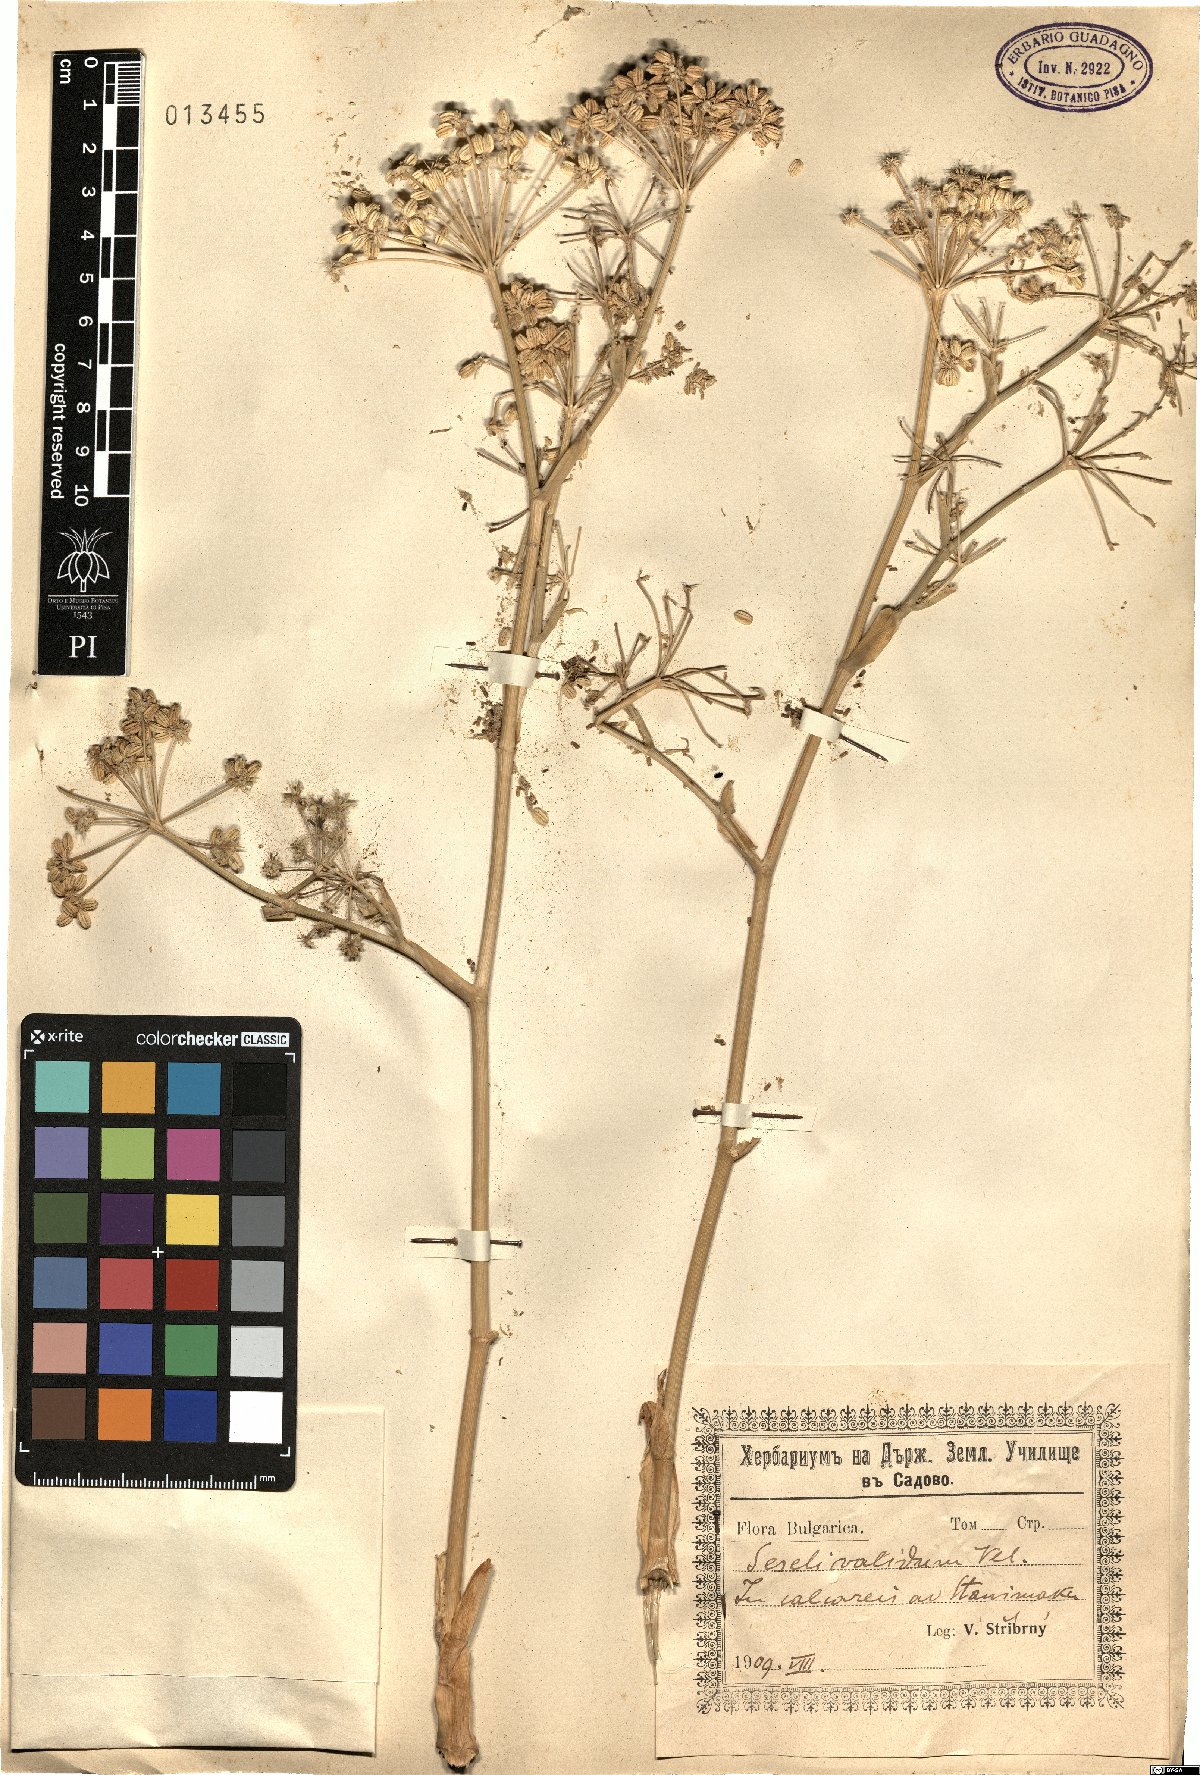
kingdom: Plantae
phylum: Tracheophyta
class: Magnoliopsida
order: Apiales
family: Apiaceae
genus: Seseli
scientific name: Seseli rhodopeum
